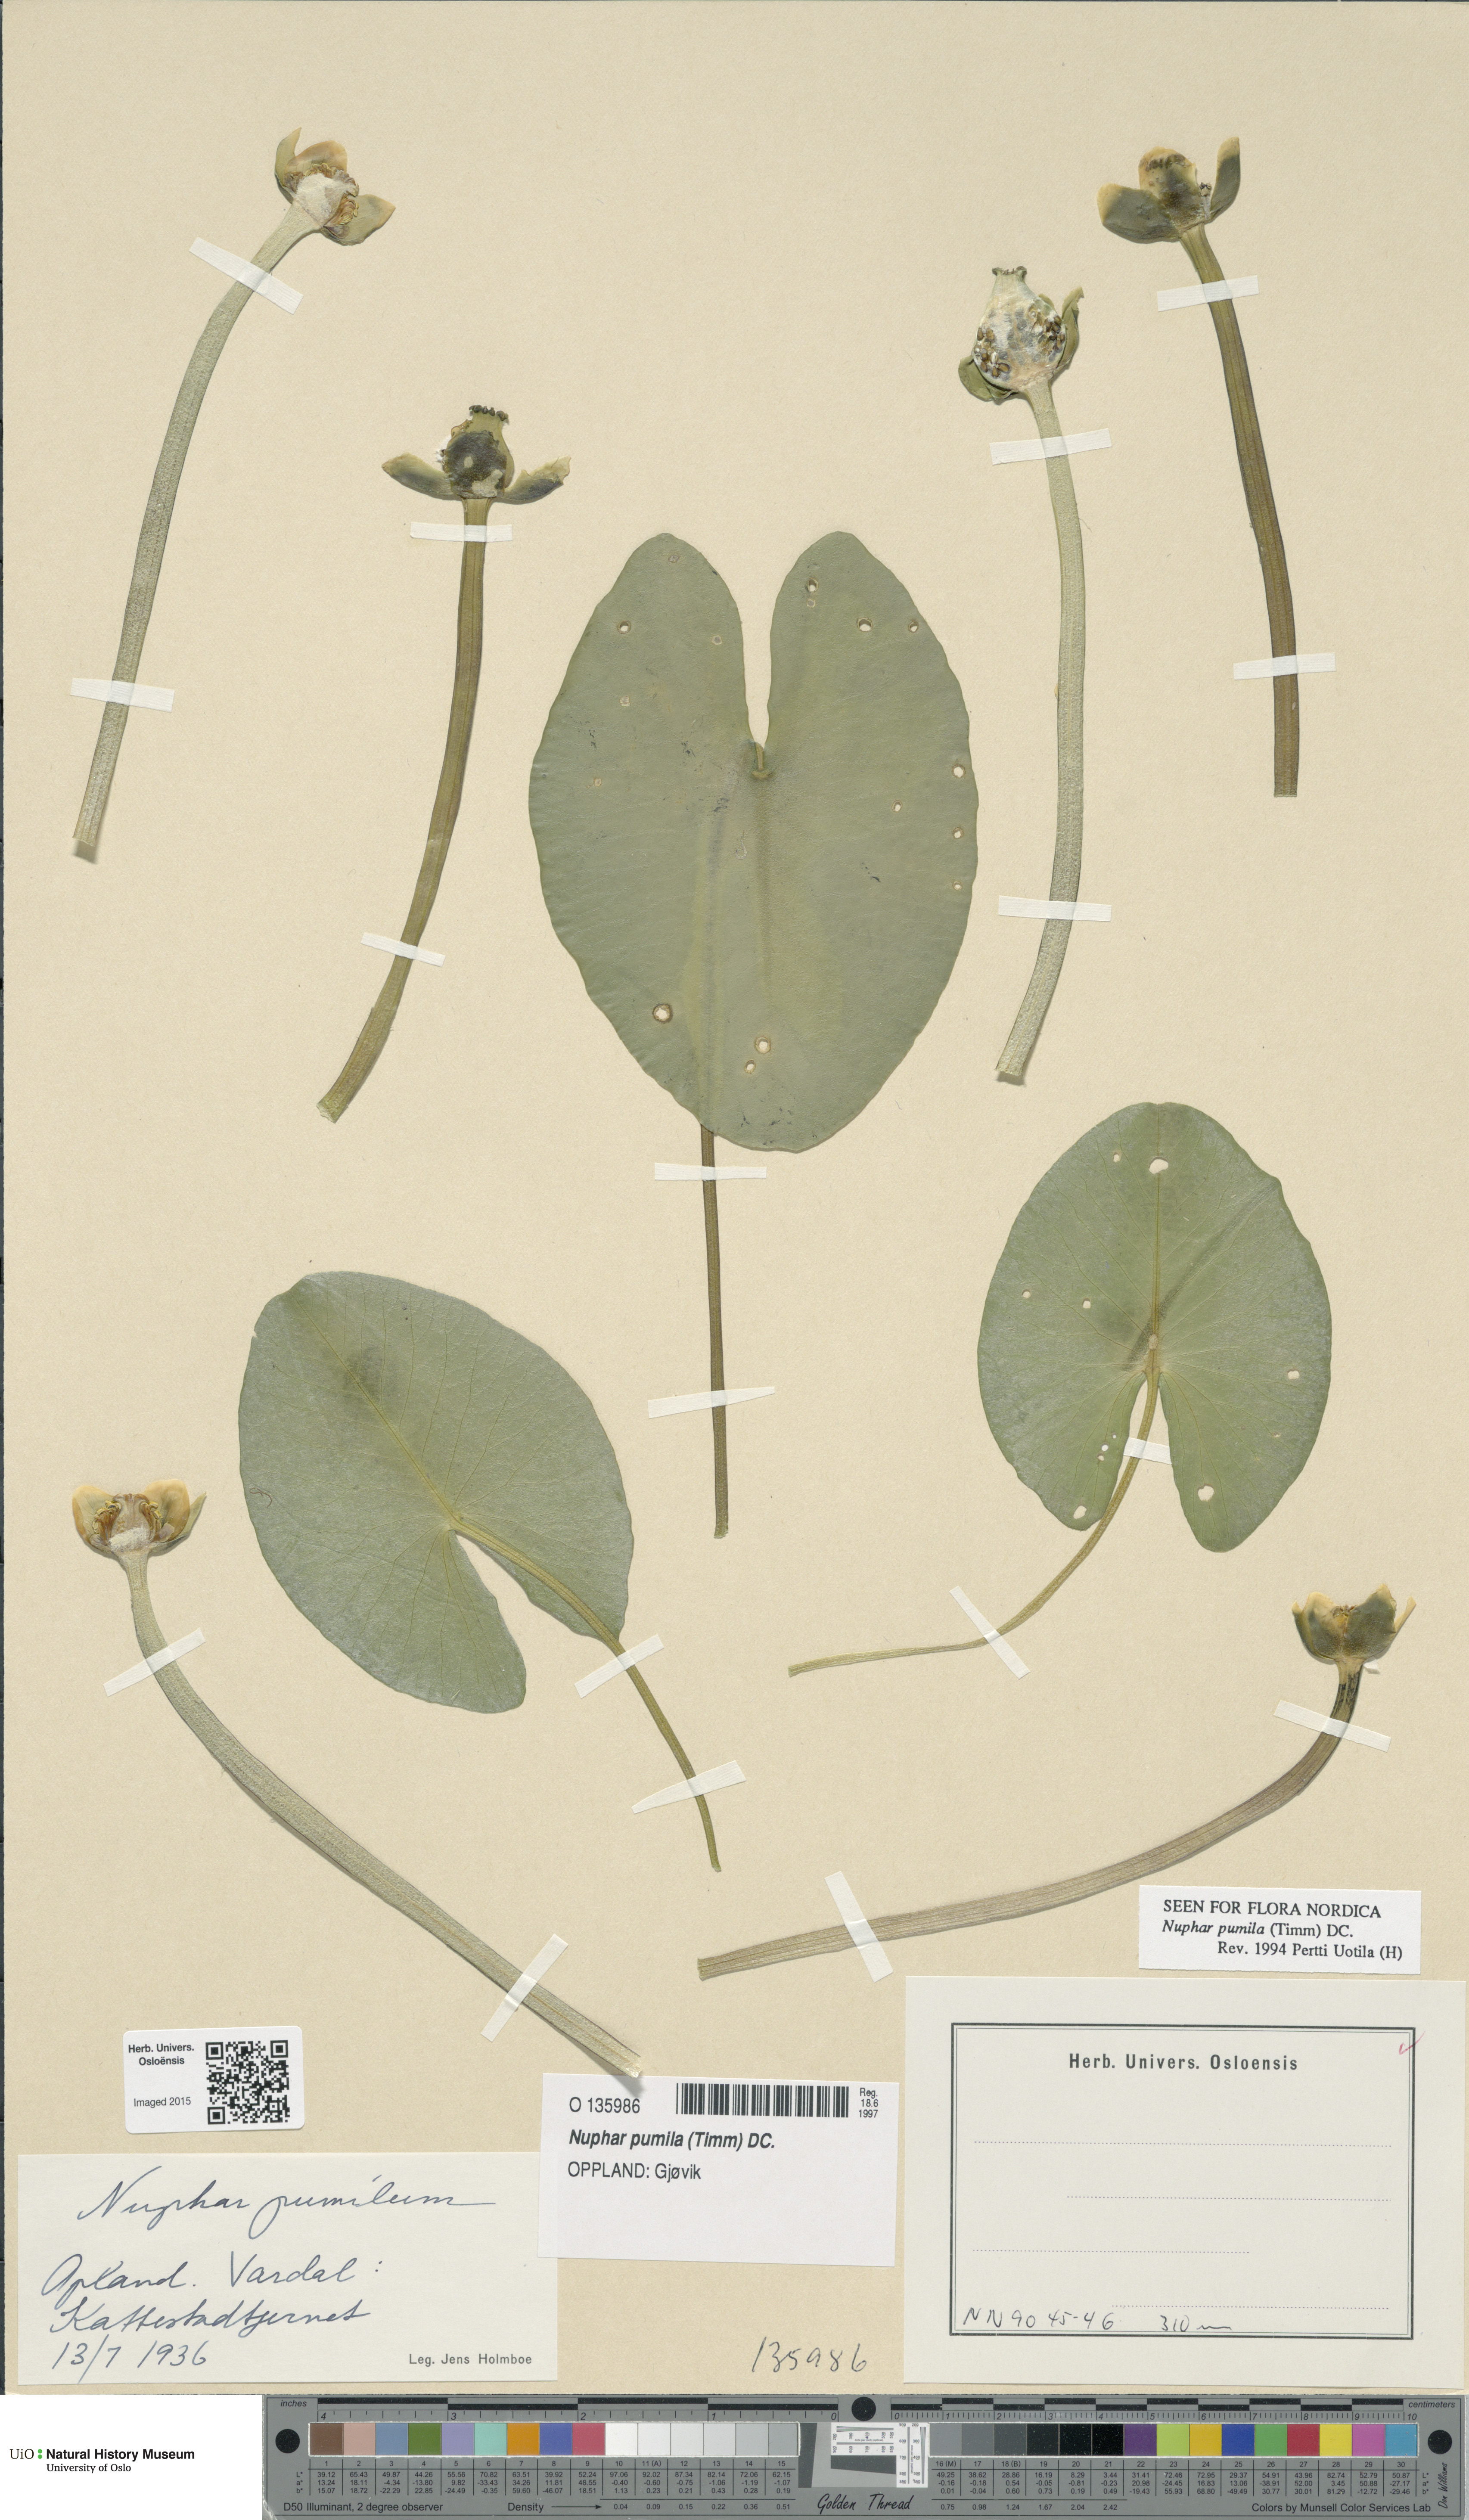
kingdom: Plantae
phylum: Tracheophyta
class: Magnoliopsida
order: Nymphaeales
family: Nymphaeaceae
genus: Nuphar
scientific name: Nuphar pumila
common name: Least water-lily
